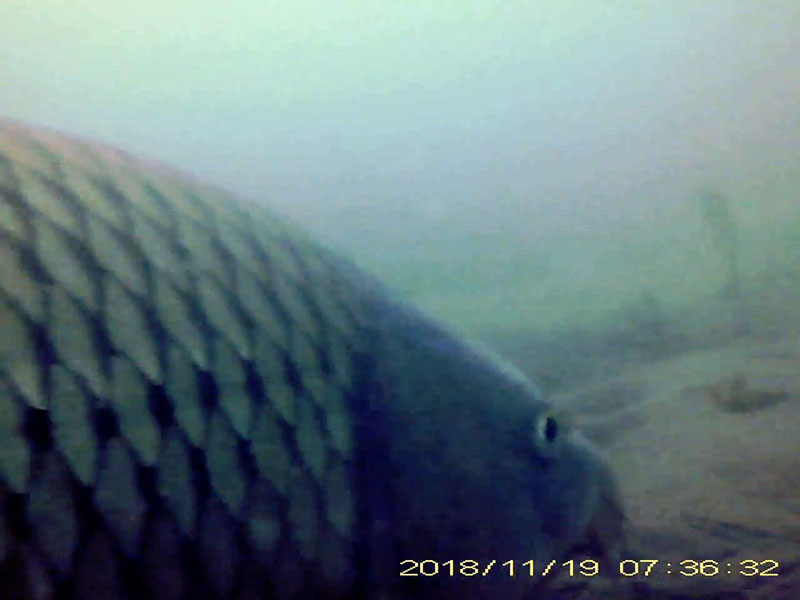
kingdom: Animalia
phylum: Chordata
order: Cypriniformes
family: Cyprinidae
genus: Cyprinus
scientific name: Cyprinus carpio
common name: コイ
